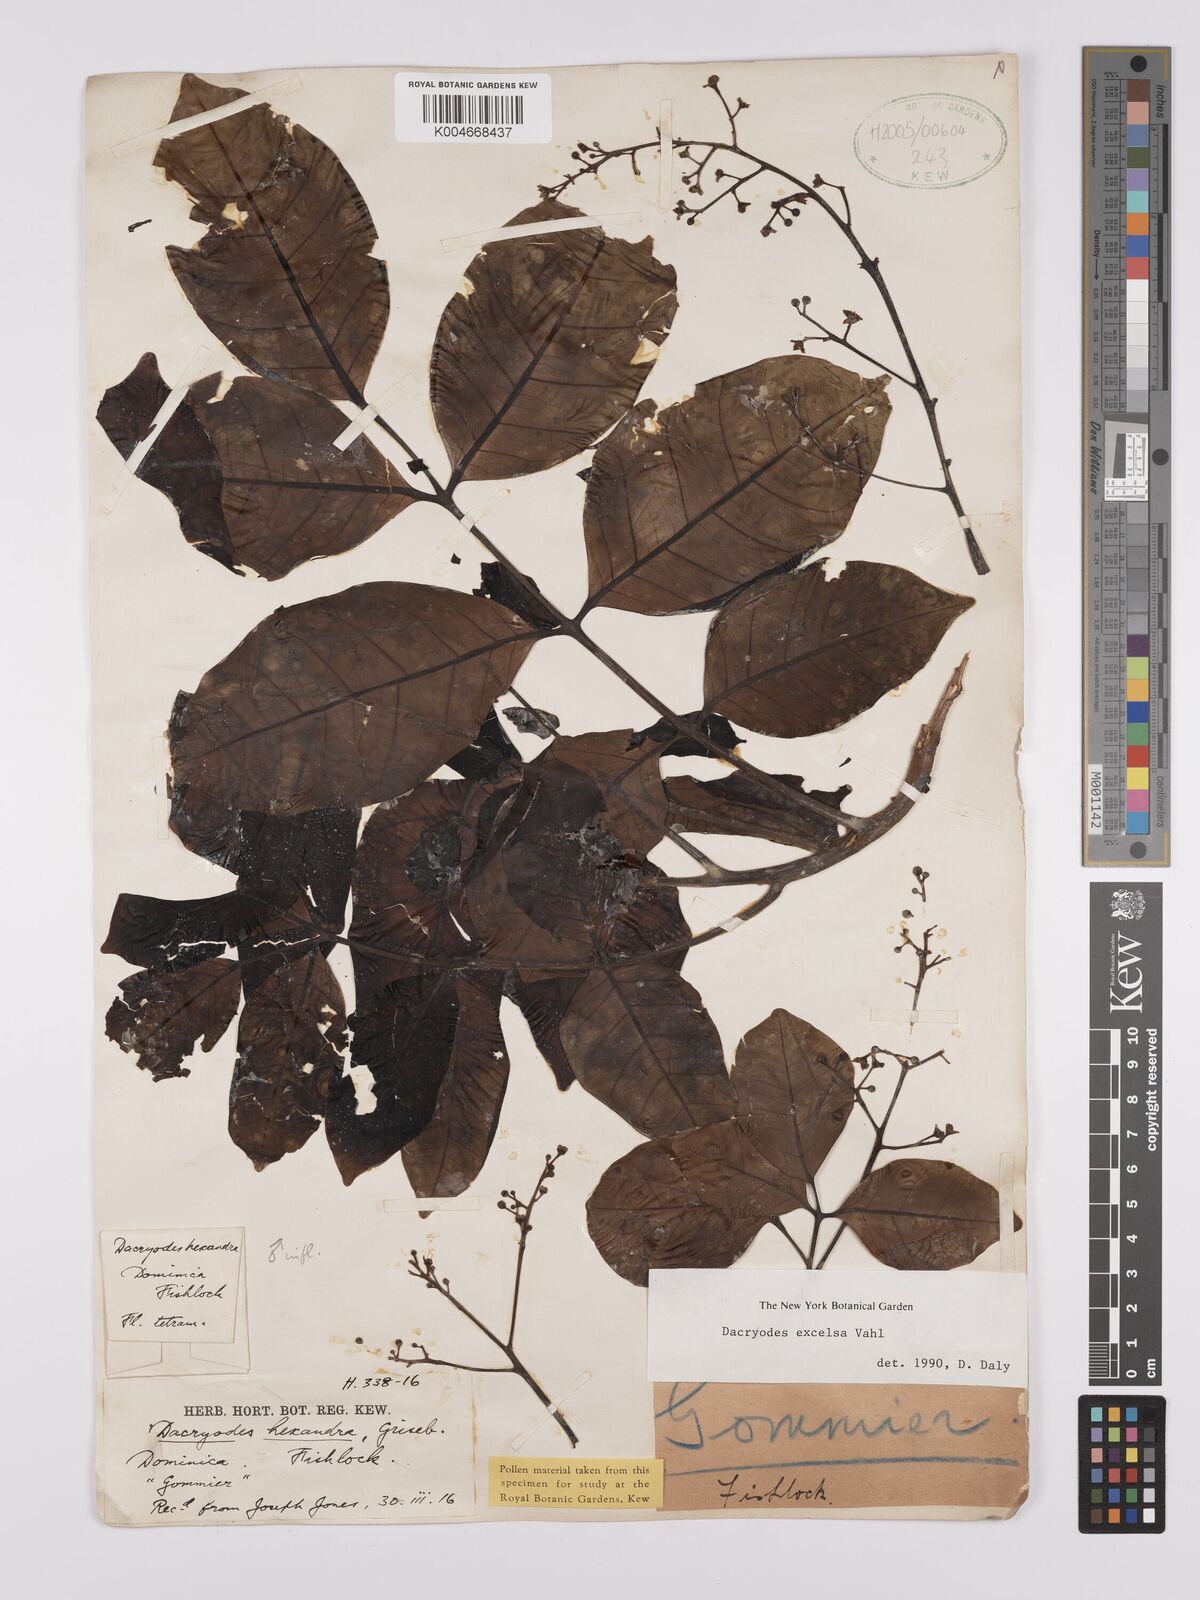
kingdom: Plantae
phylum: Tracheophyta
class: Magnoliopsida
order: Sapindales
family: Burseraceae
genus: Dacryodes
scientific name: Dacryodes excelsa
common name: Candlewood
